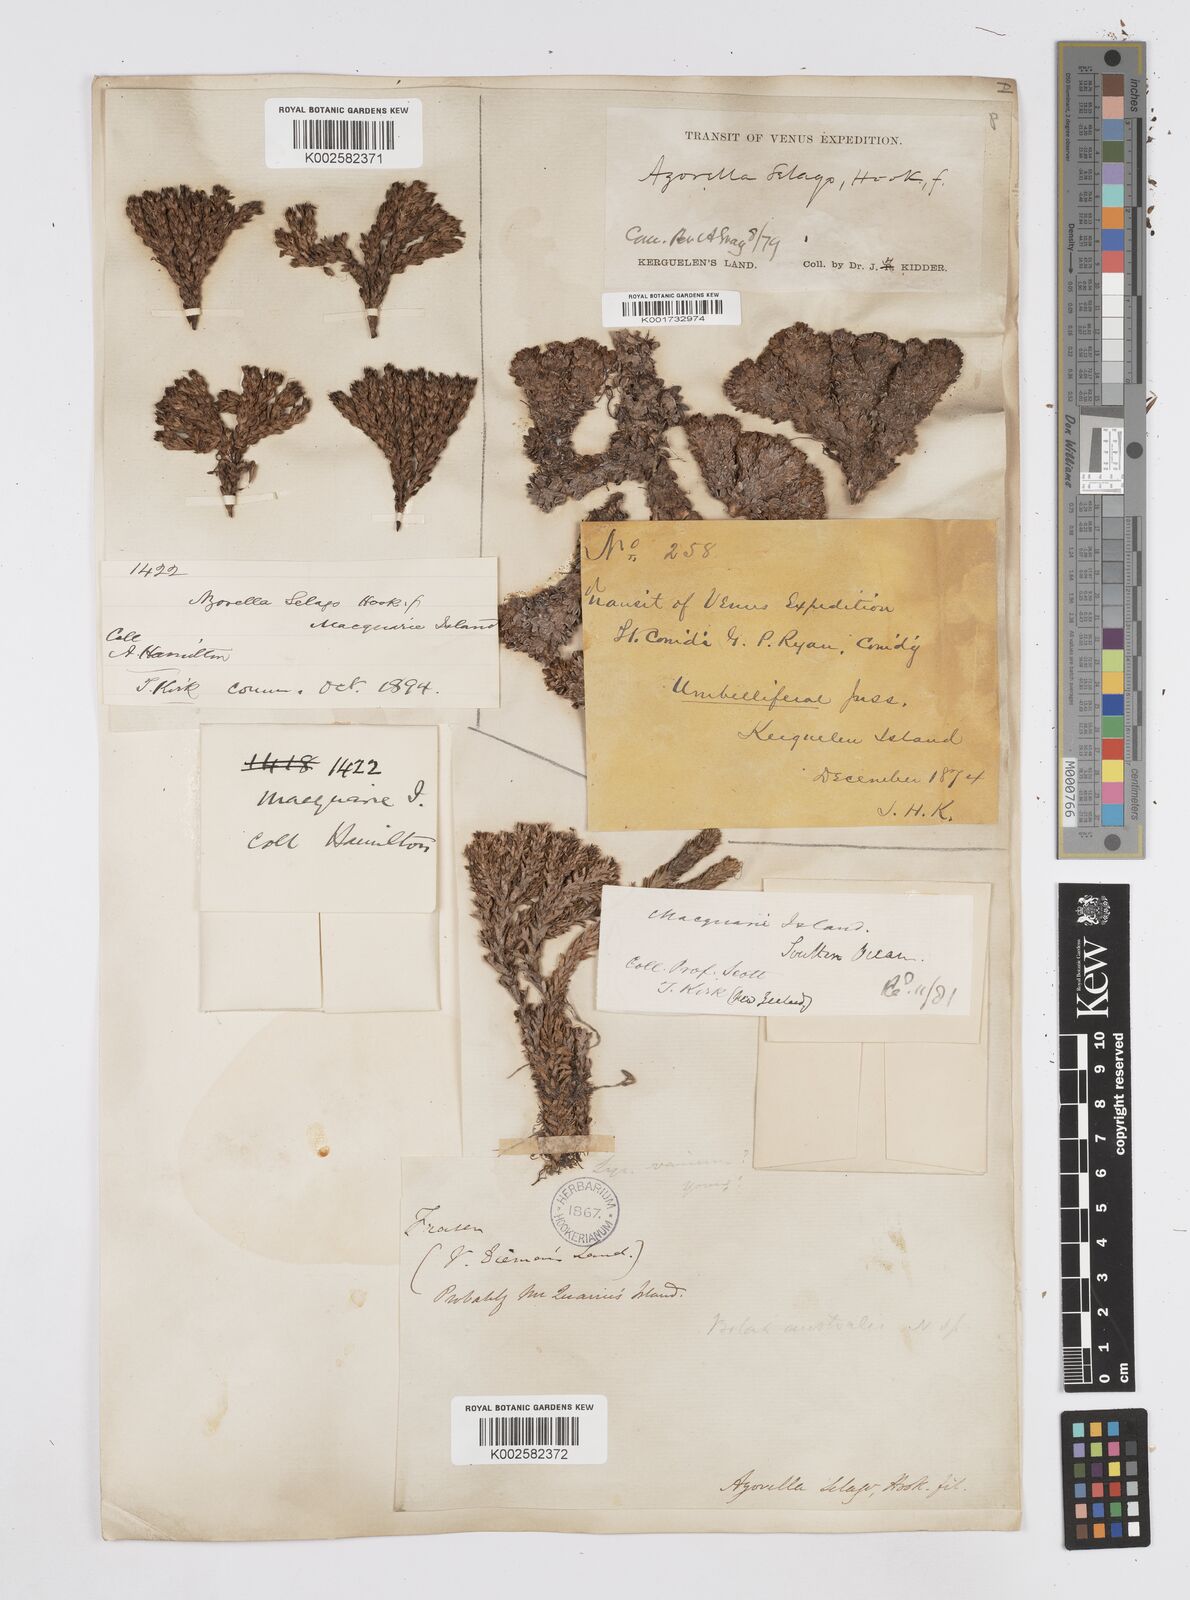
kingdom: Plantae
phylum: Tracheophyta
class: Magnoliopsida
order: Apiales
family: Apiaceae
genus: Azorella
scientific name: Azorella selago
